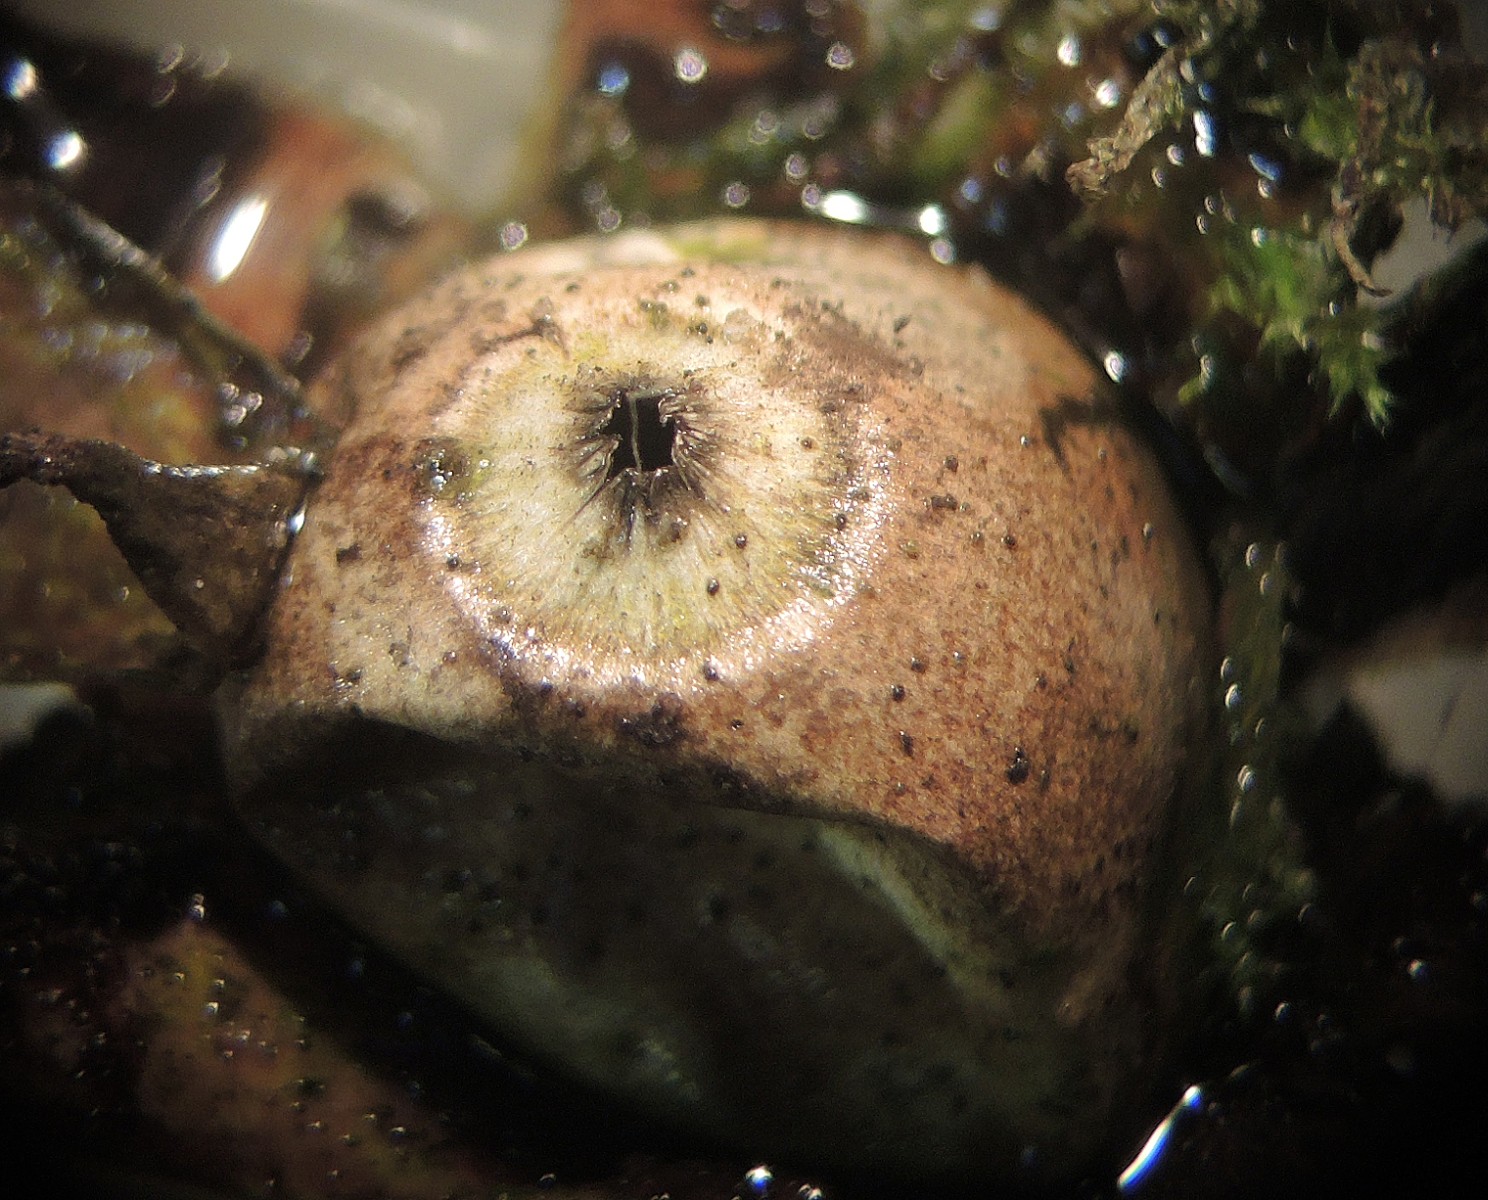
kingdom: Fungi
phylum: Basidiomycota
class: Agaricomycetes
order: Geastrales
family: Geastraceae
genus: Geastrum
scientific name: Geastrum saccatum
